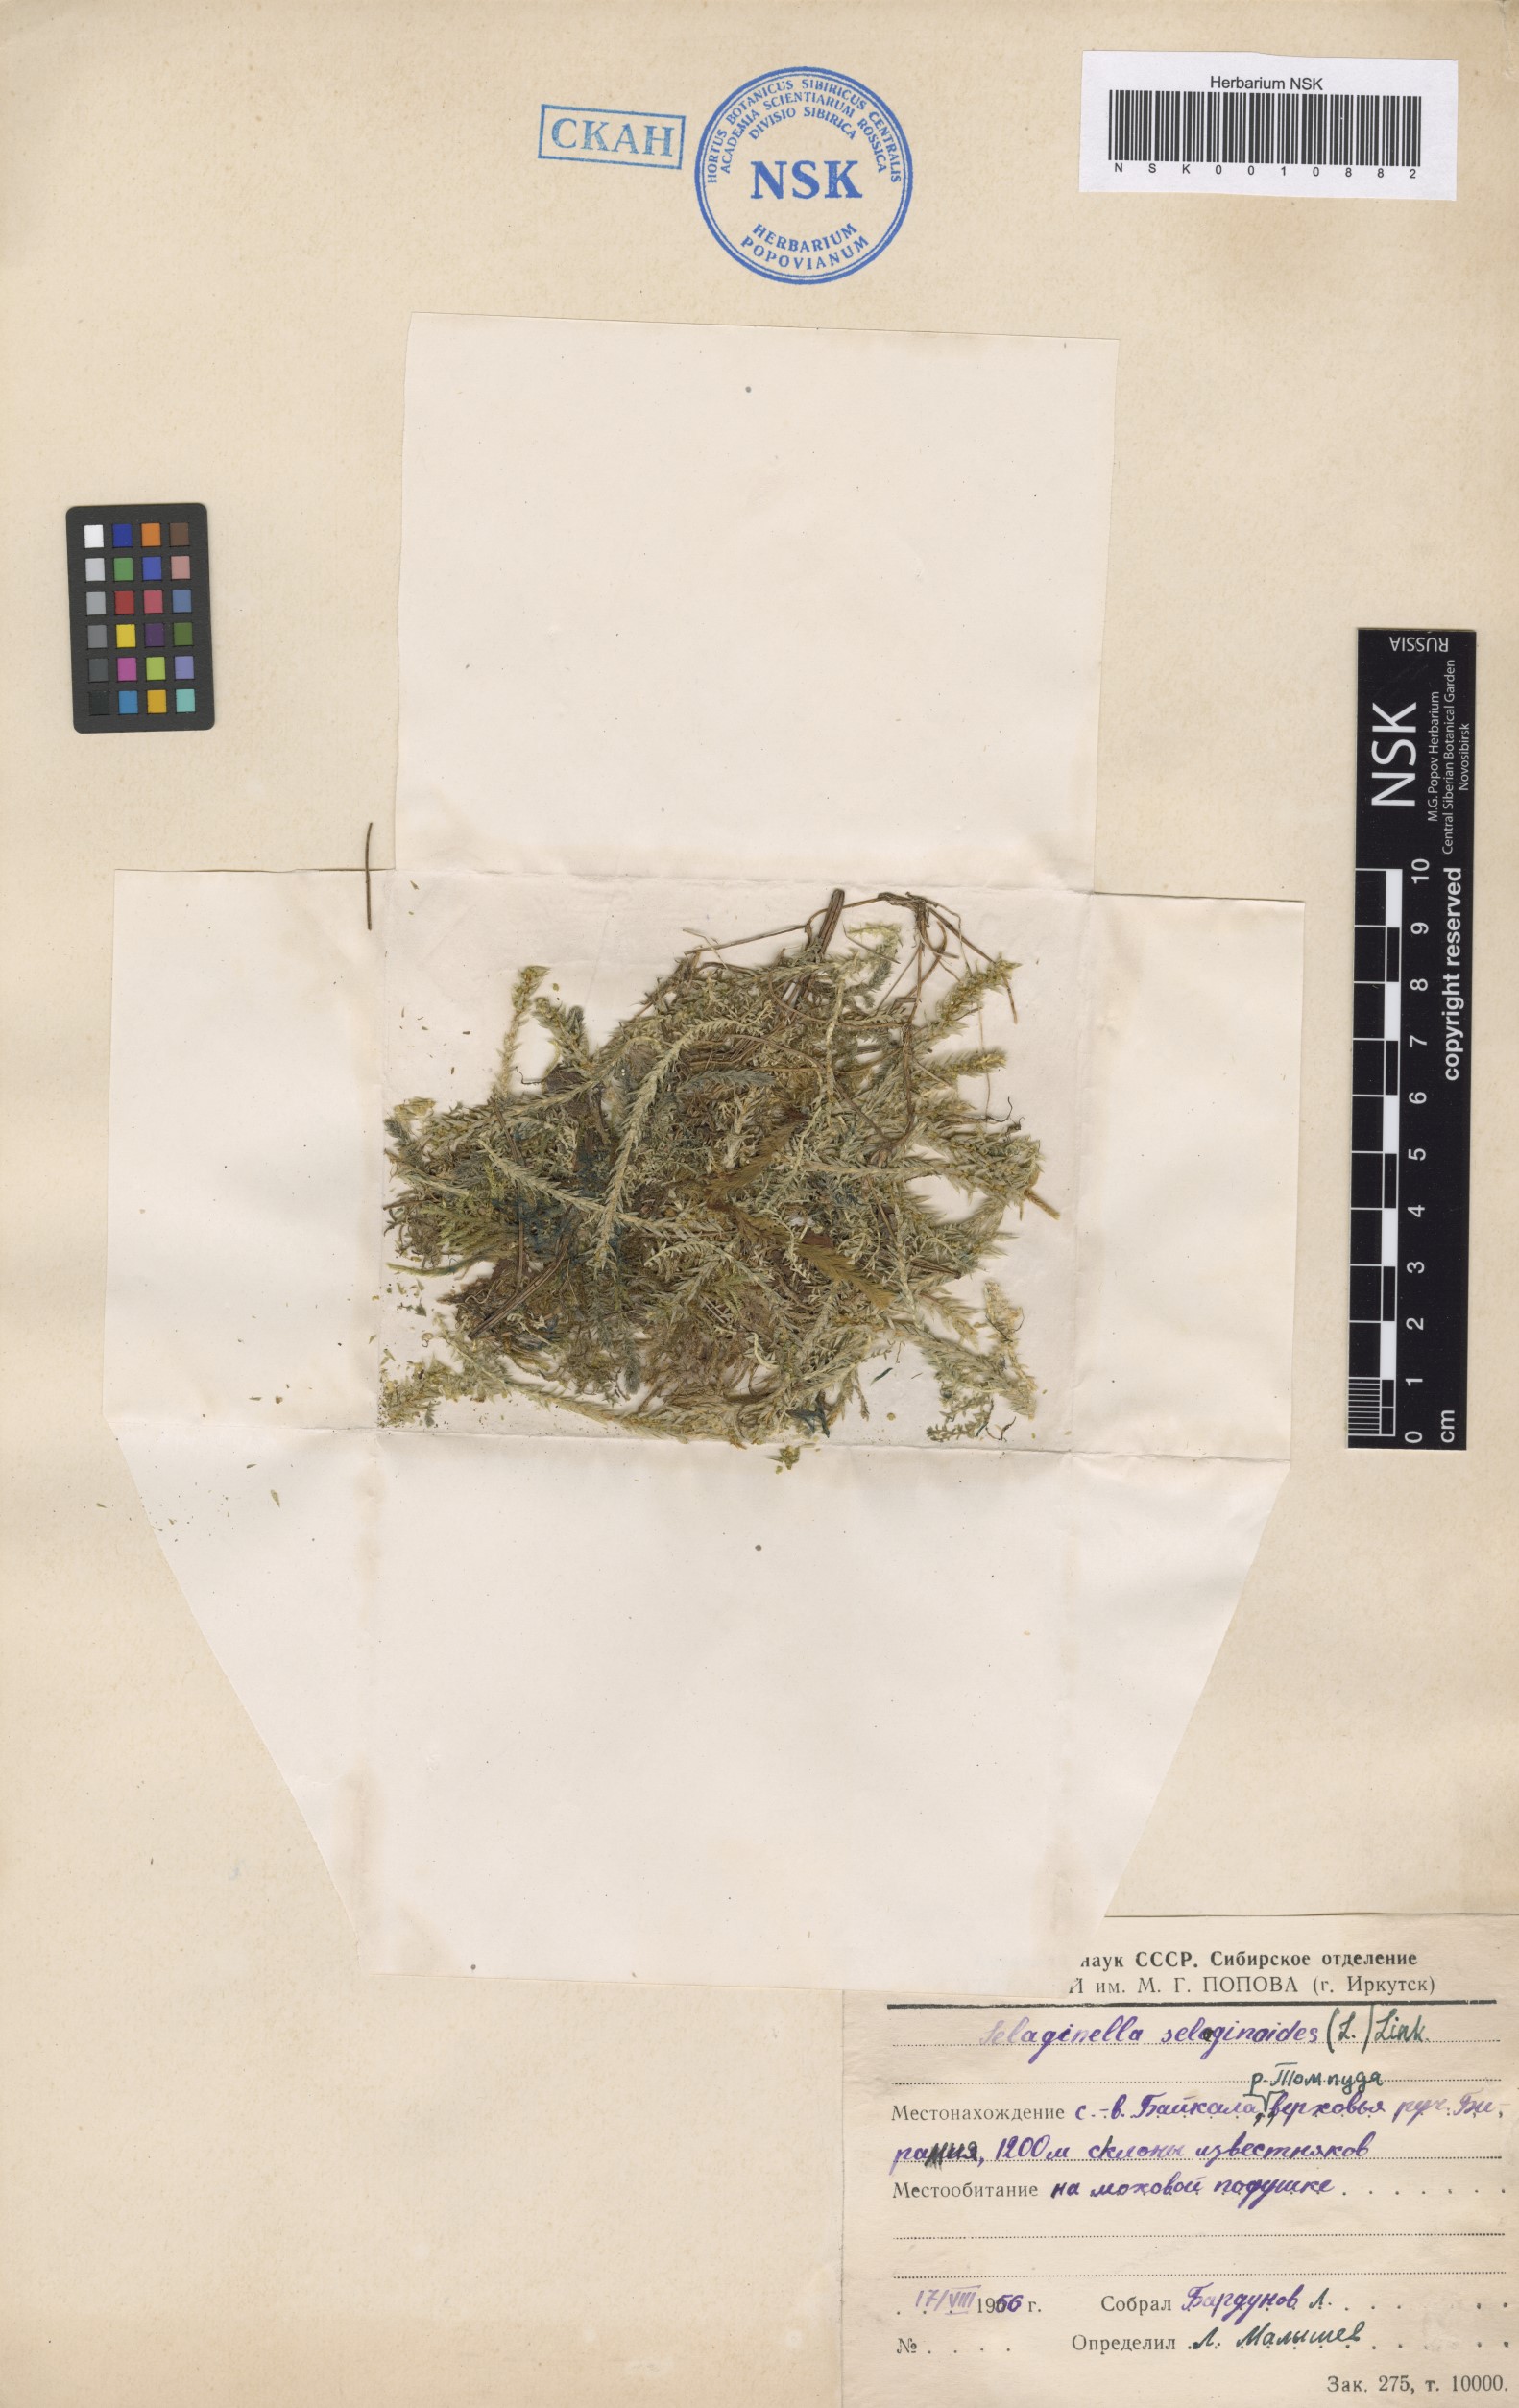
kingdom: Plantae
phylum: Tracheophyta
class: Lycopodiopsida
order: Selaginellales
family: Selaginellaceae
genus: Selaginella
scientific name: Selaginella selaginoides
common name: Prickly mountain-moss
